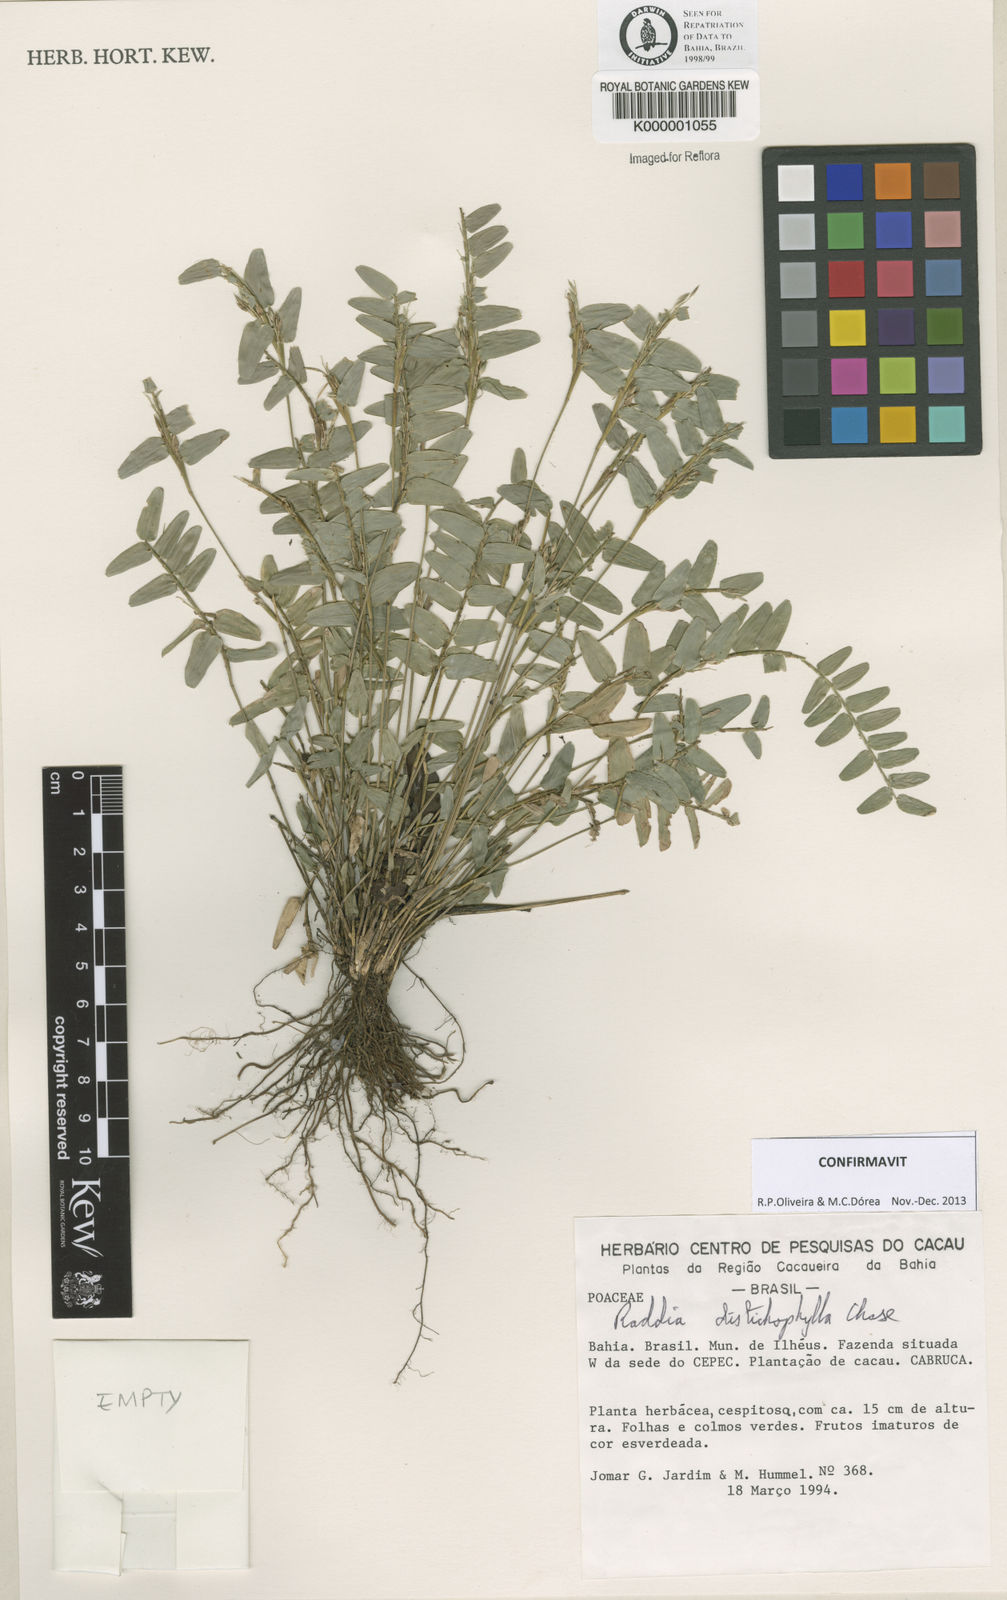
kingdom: Plantae
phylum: Tracheophyta
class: Liliopsida
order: Poales
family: Poaceae
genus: Raddia
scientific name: Raddia distichophylla
